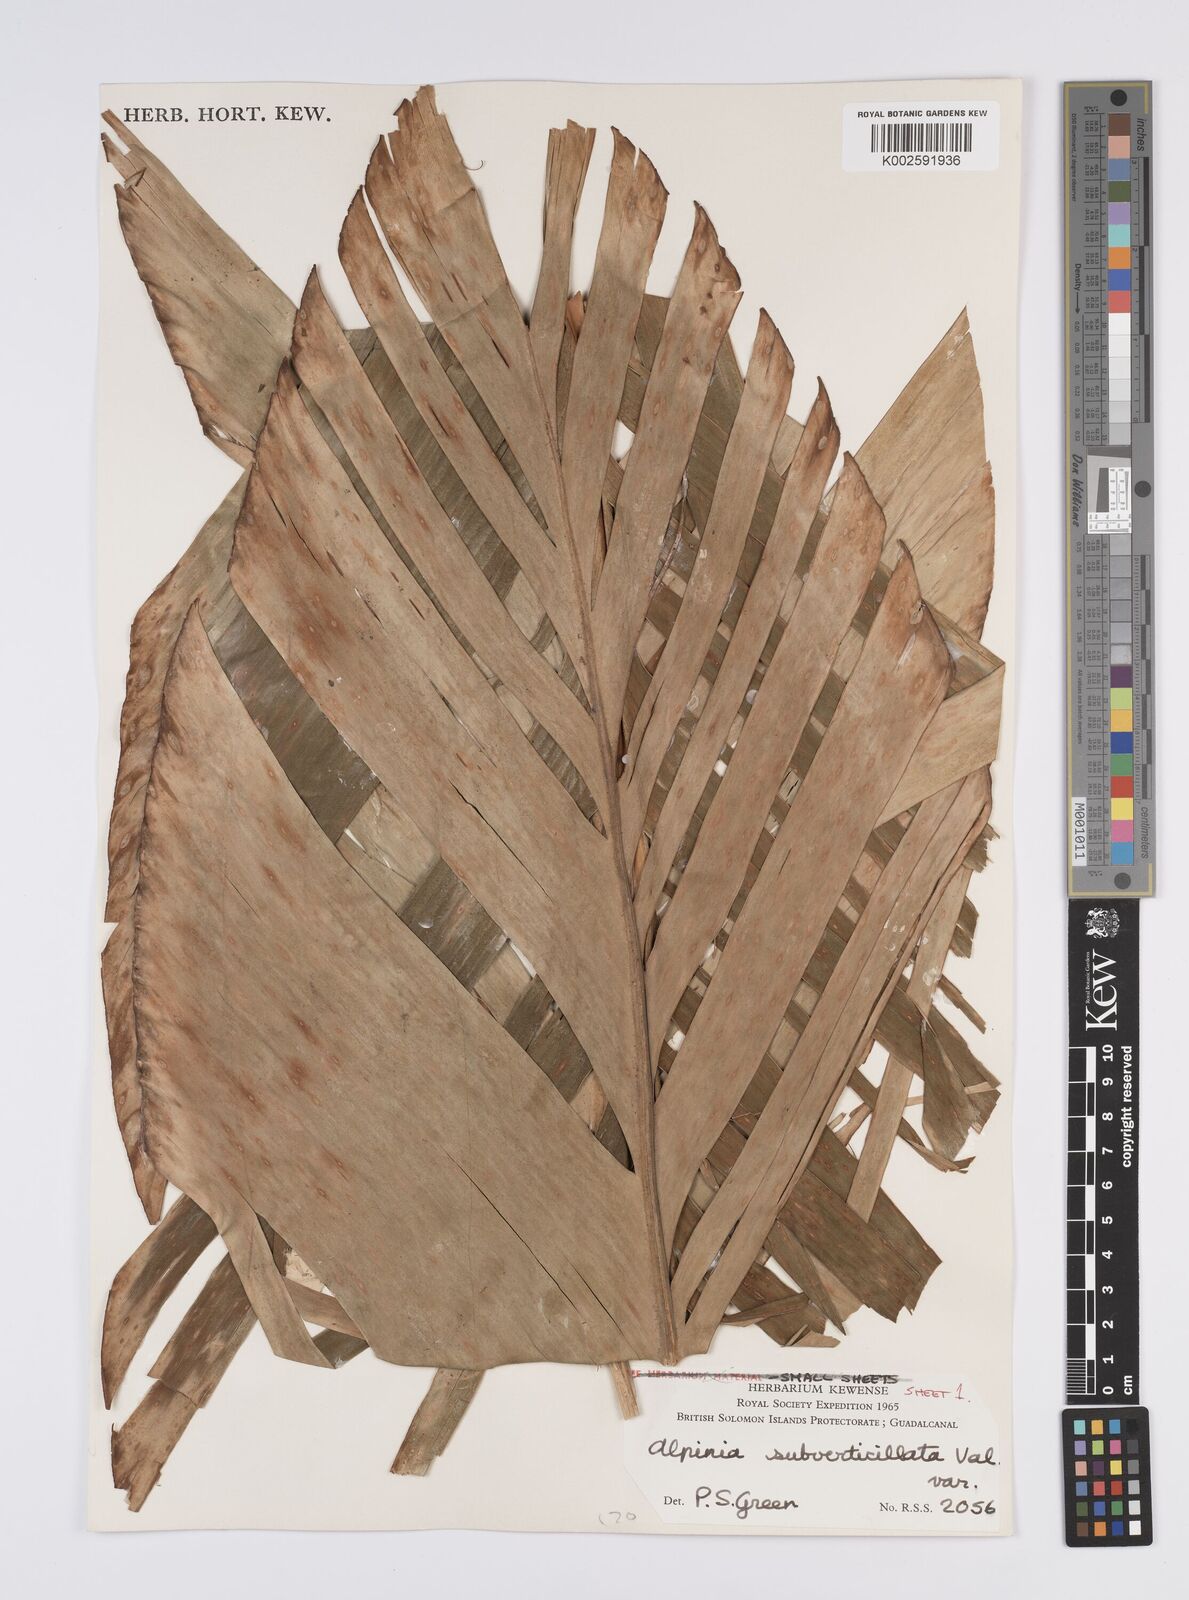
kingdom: Plantae
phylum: Tracheophyta
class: Liliopsida
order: Zingiberales
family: Zingiberaceae
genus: Alpinia
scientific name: Alpinia subverticillata
